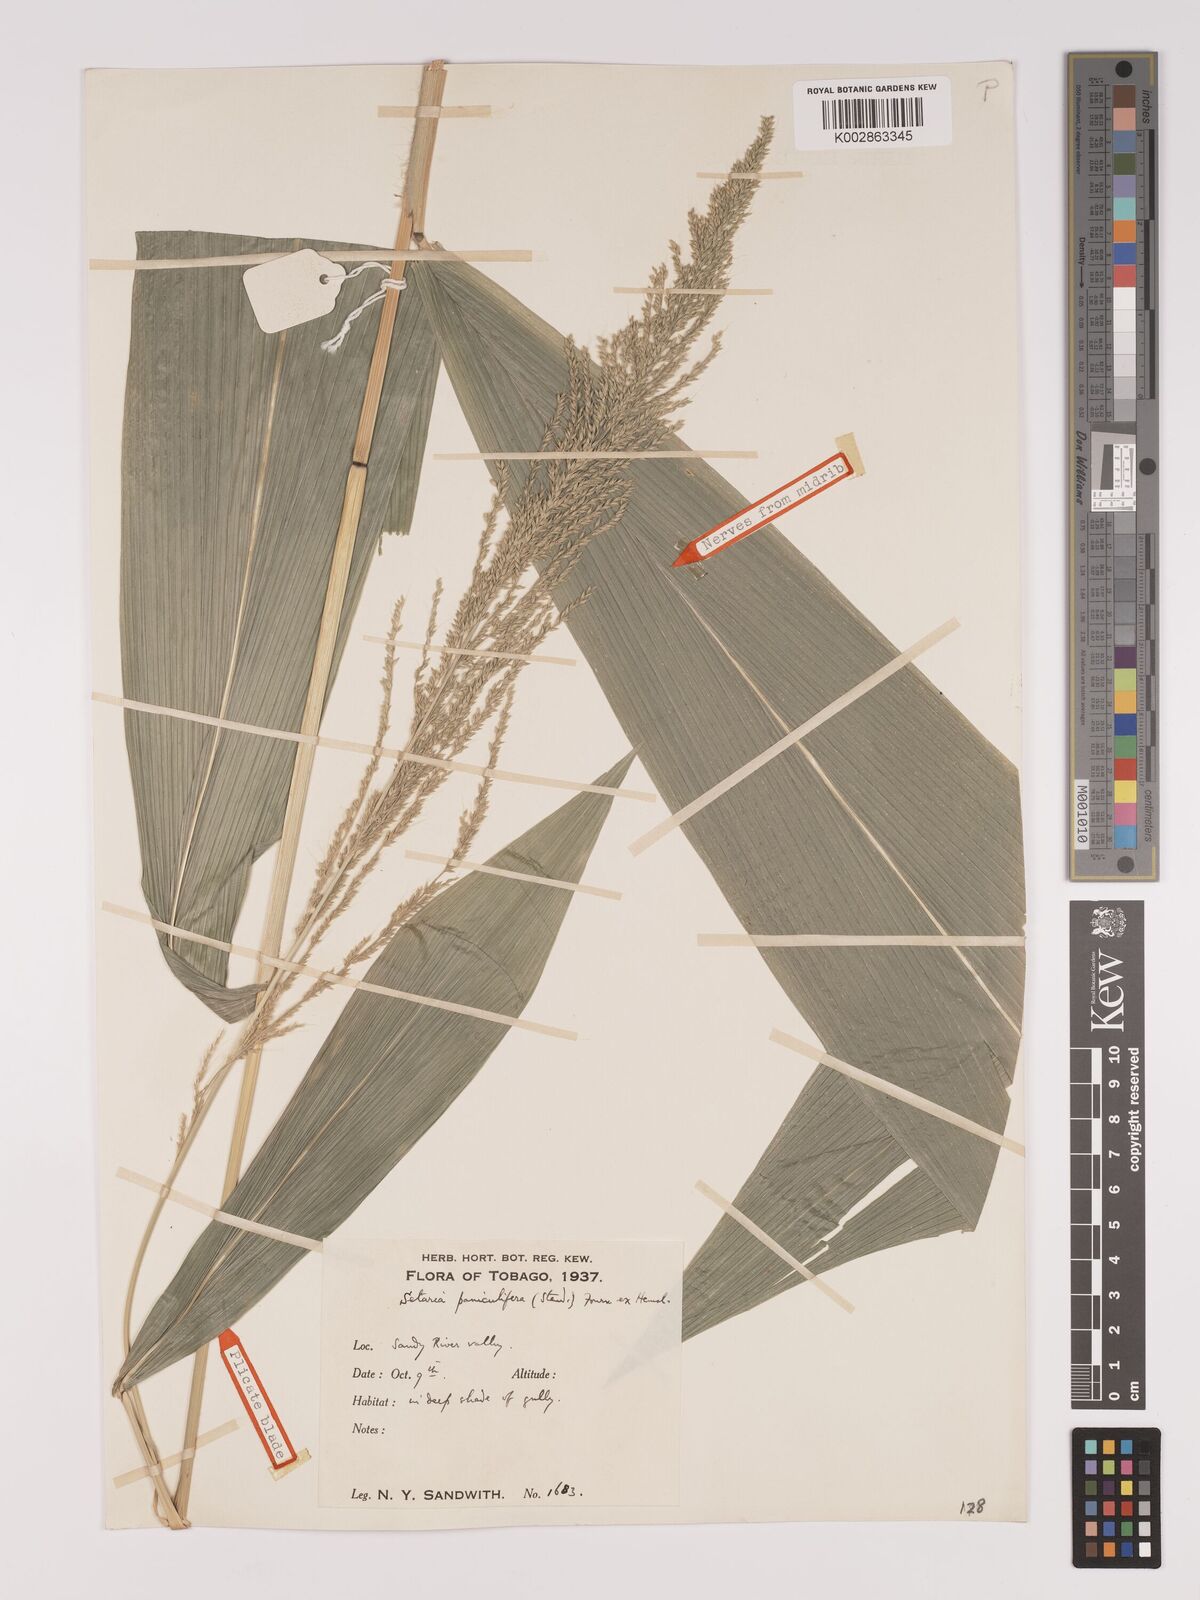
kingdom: Plantae
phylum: Tracheophyta
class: Liliopsida
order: Poales
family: Poaceae
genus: Setaria
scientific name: Setaria palmifolia
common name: Broadleaved bristlegrass
